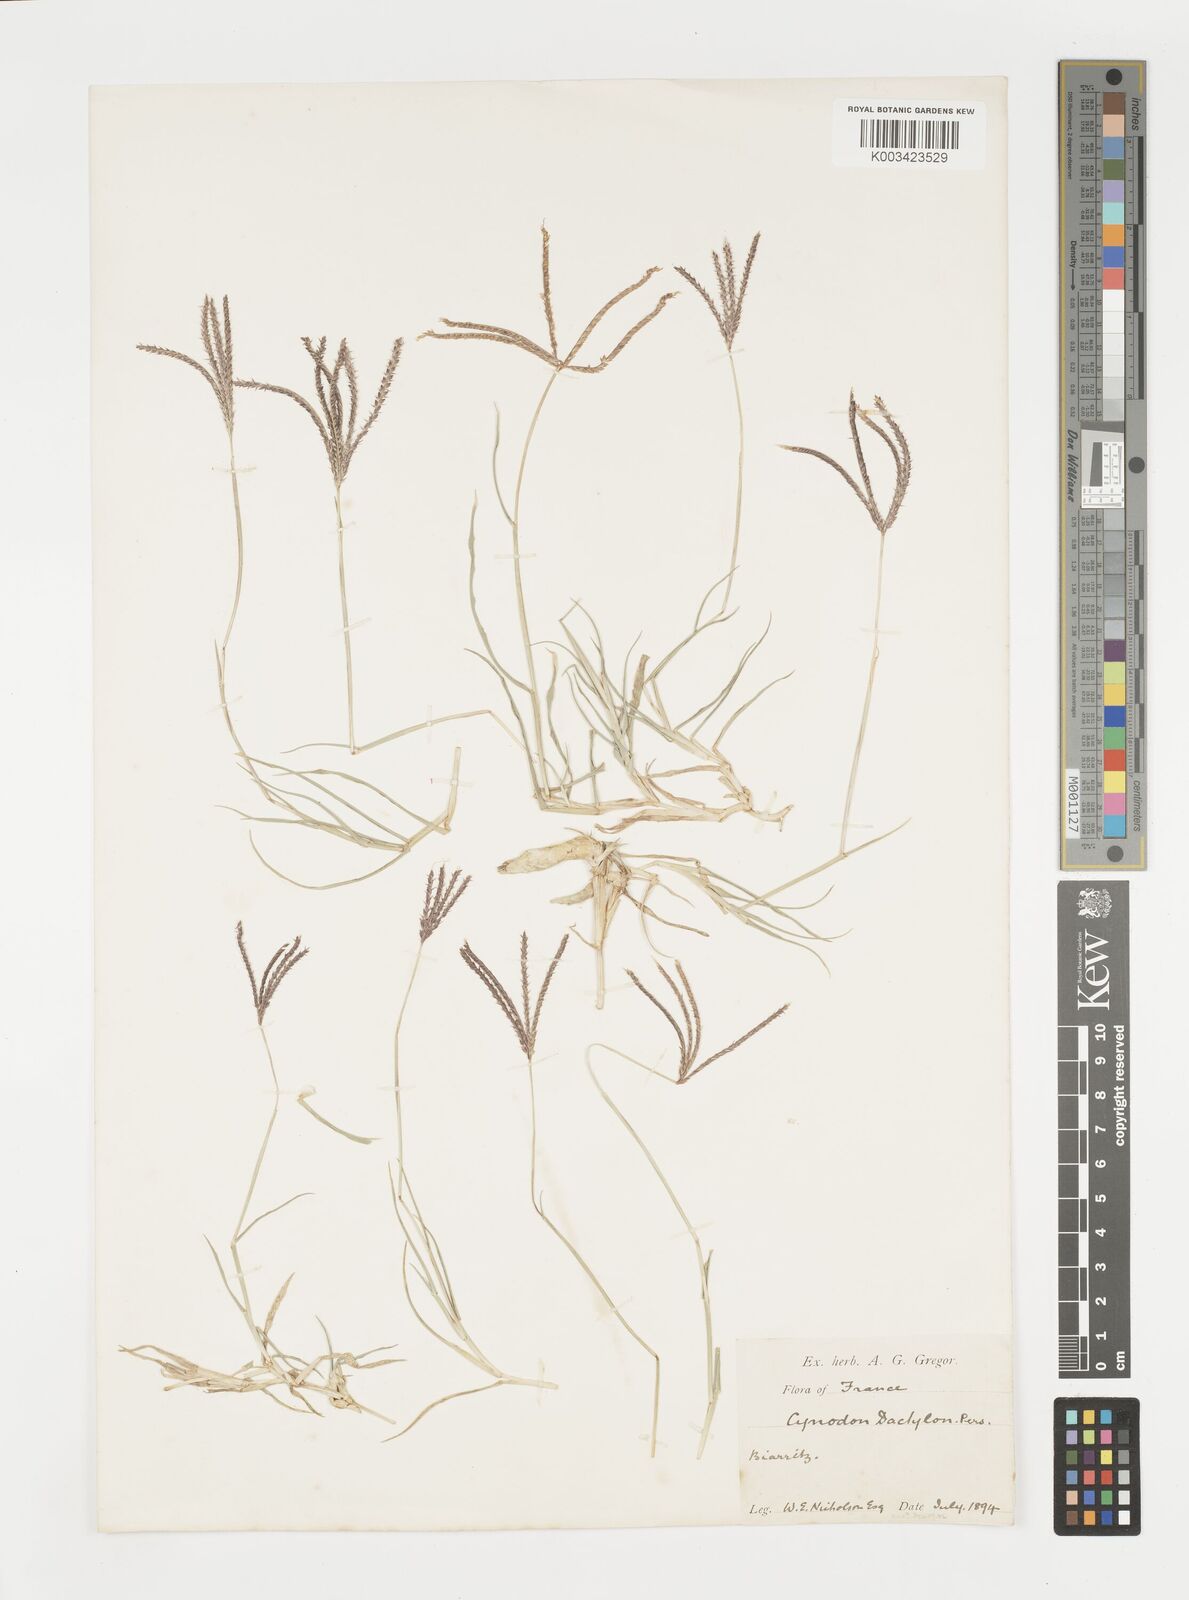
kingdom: Plantae
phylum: Tracheophyta
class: Liliopsida
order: Poales
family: Poaceae
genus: Cynodon
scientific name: Cynodon dactylon
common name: Bermuda grass
